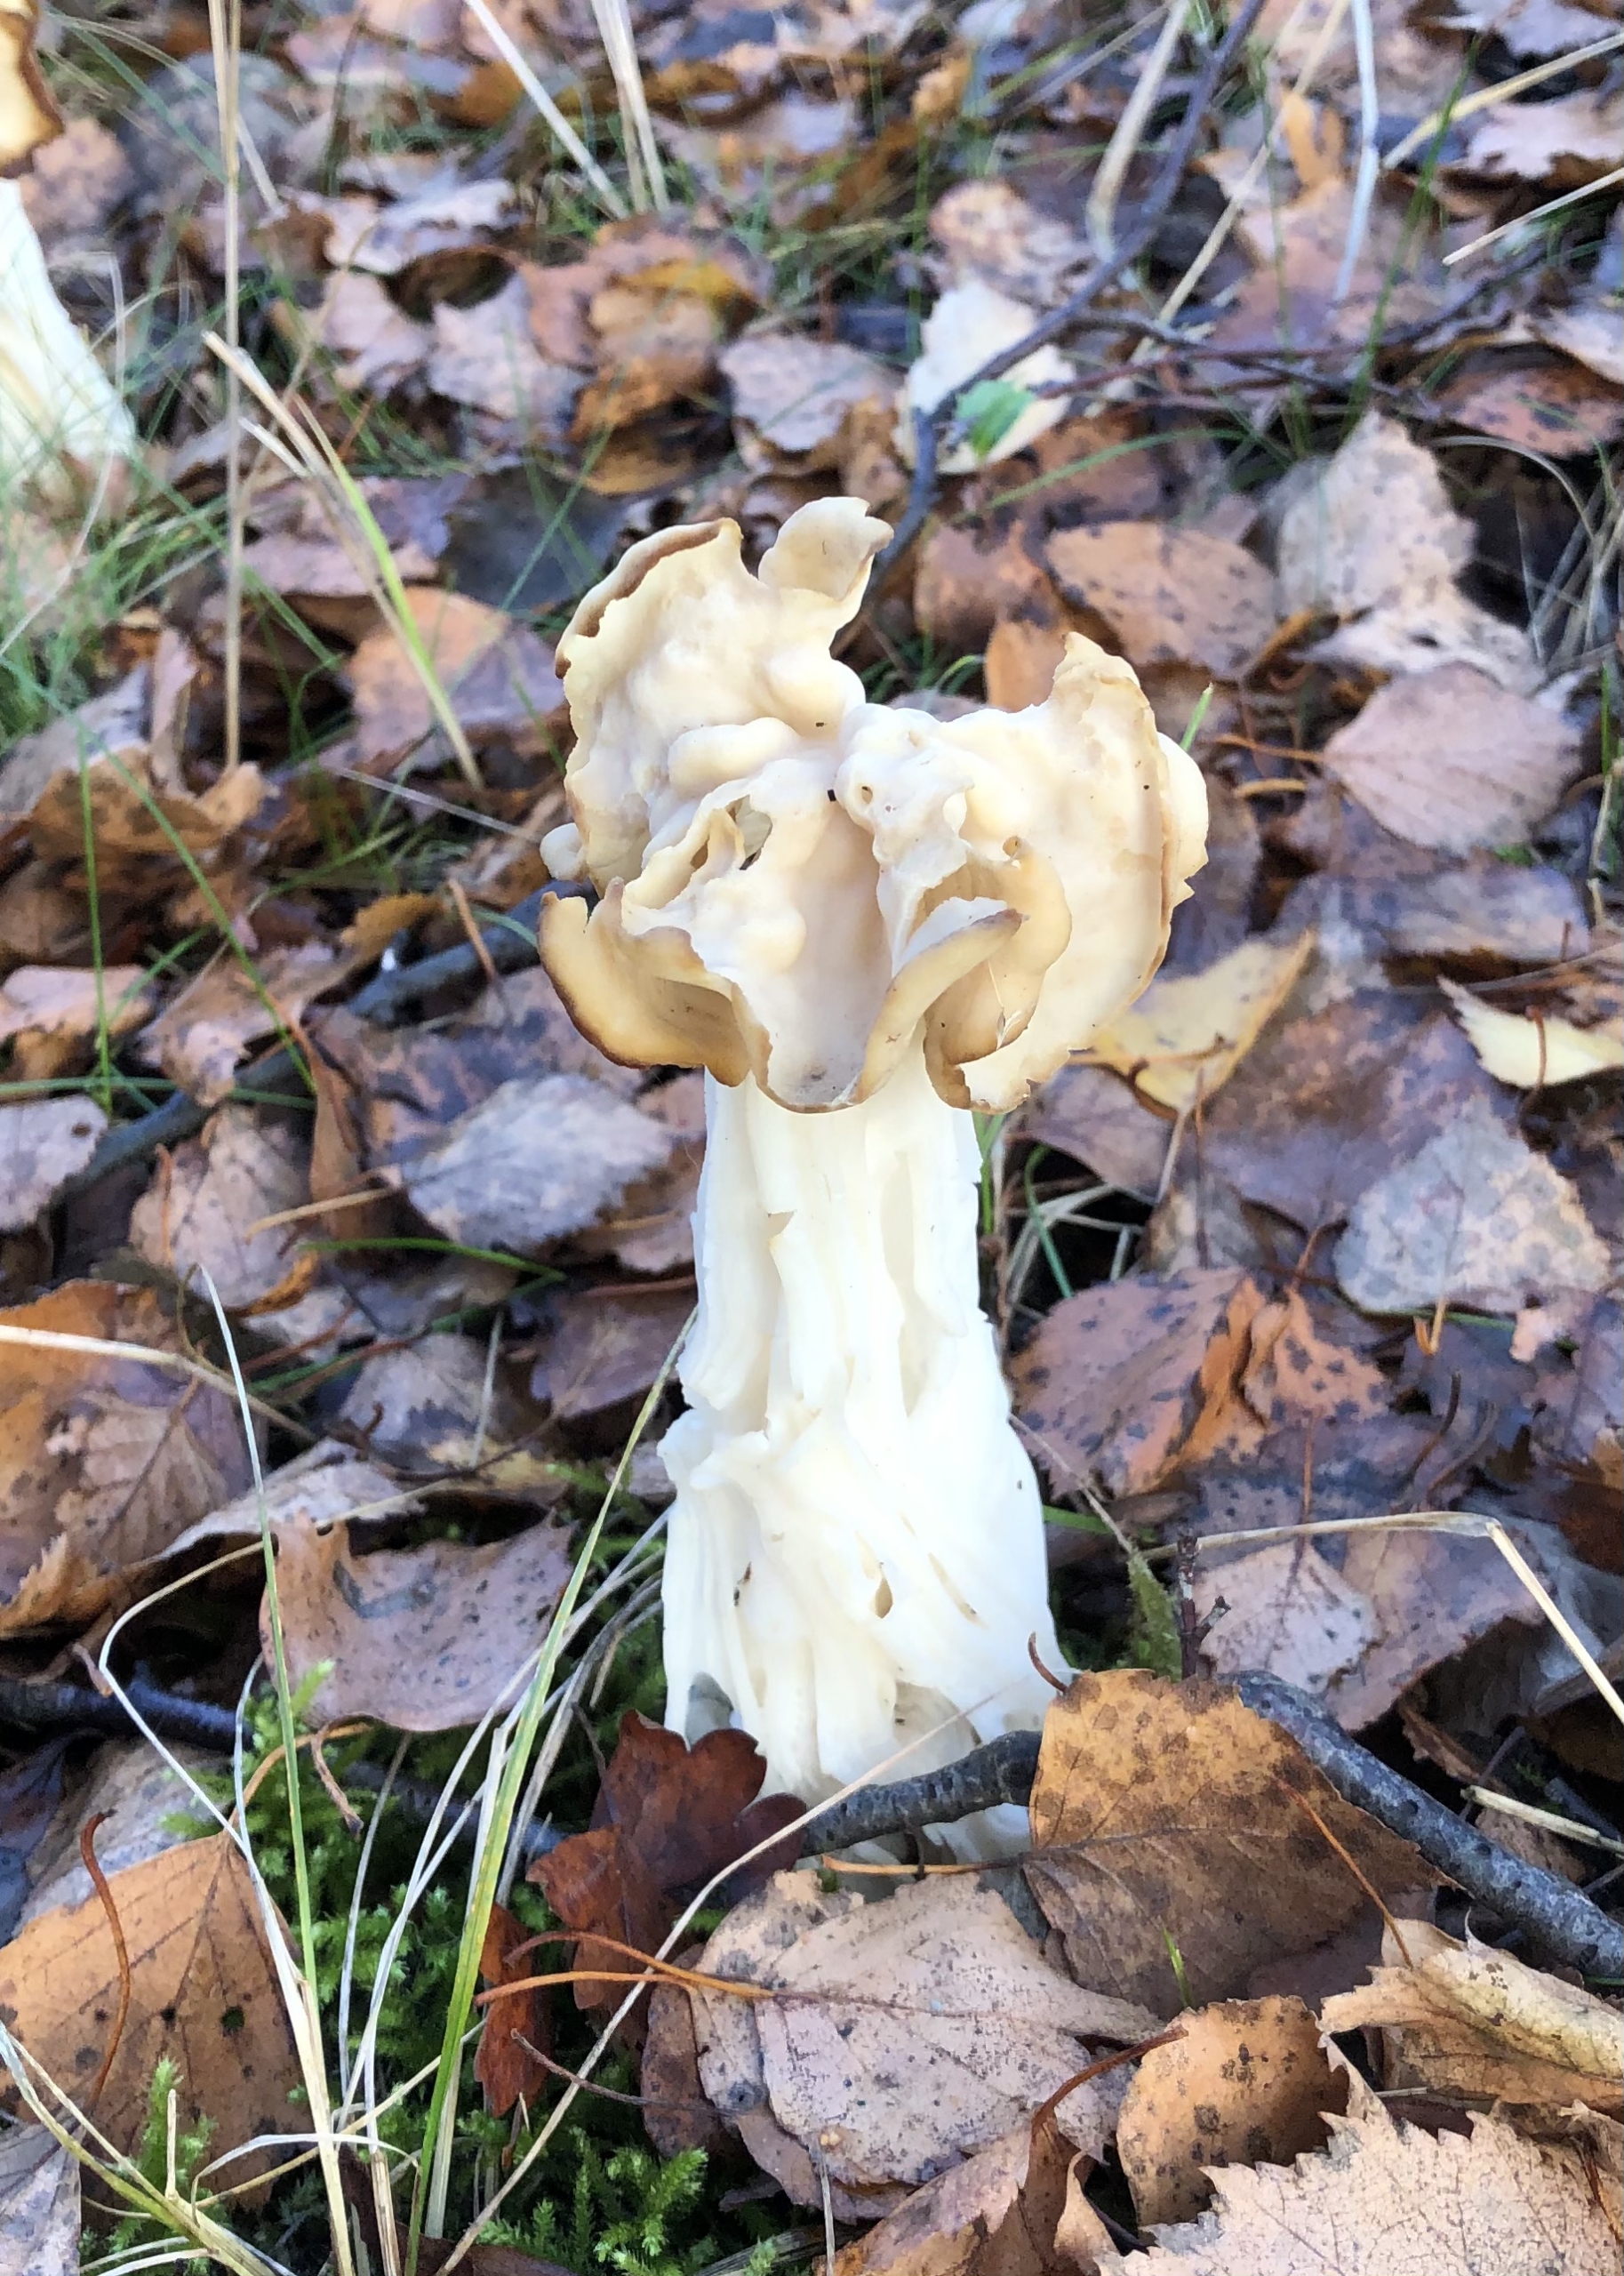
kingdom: Fungi
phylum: Ascomycota
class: Pezizomycetes
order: Pezizales
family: Helvellaceae
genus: Helvella
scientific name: Helvella crispa
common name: Kruset foldhat
